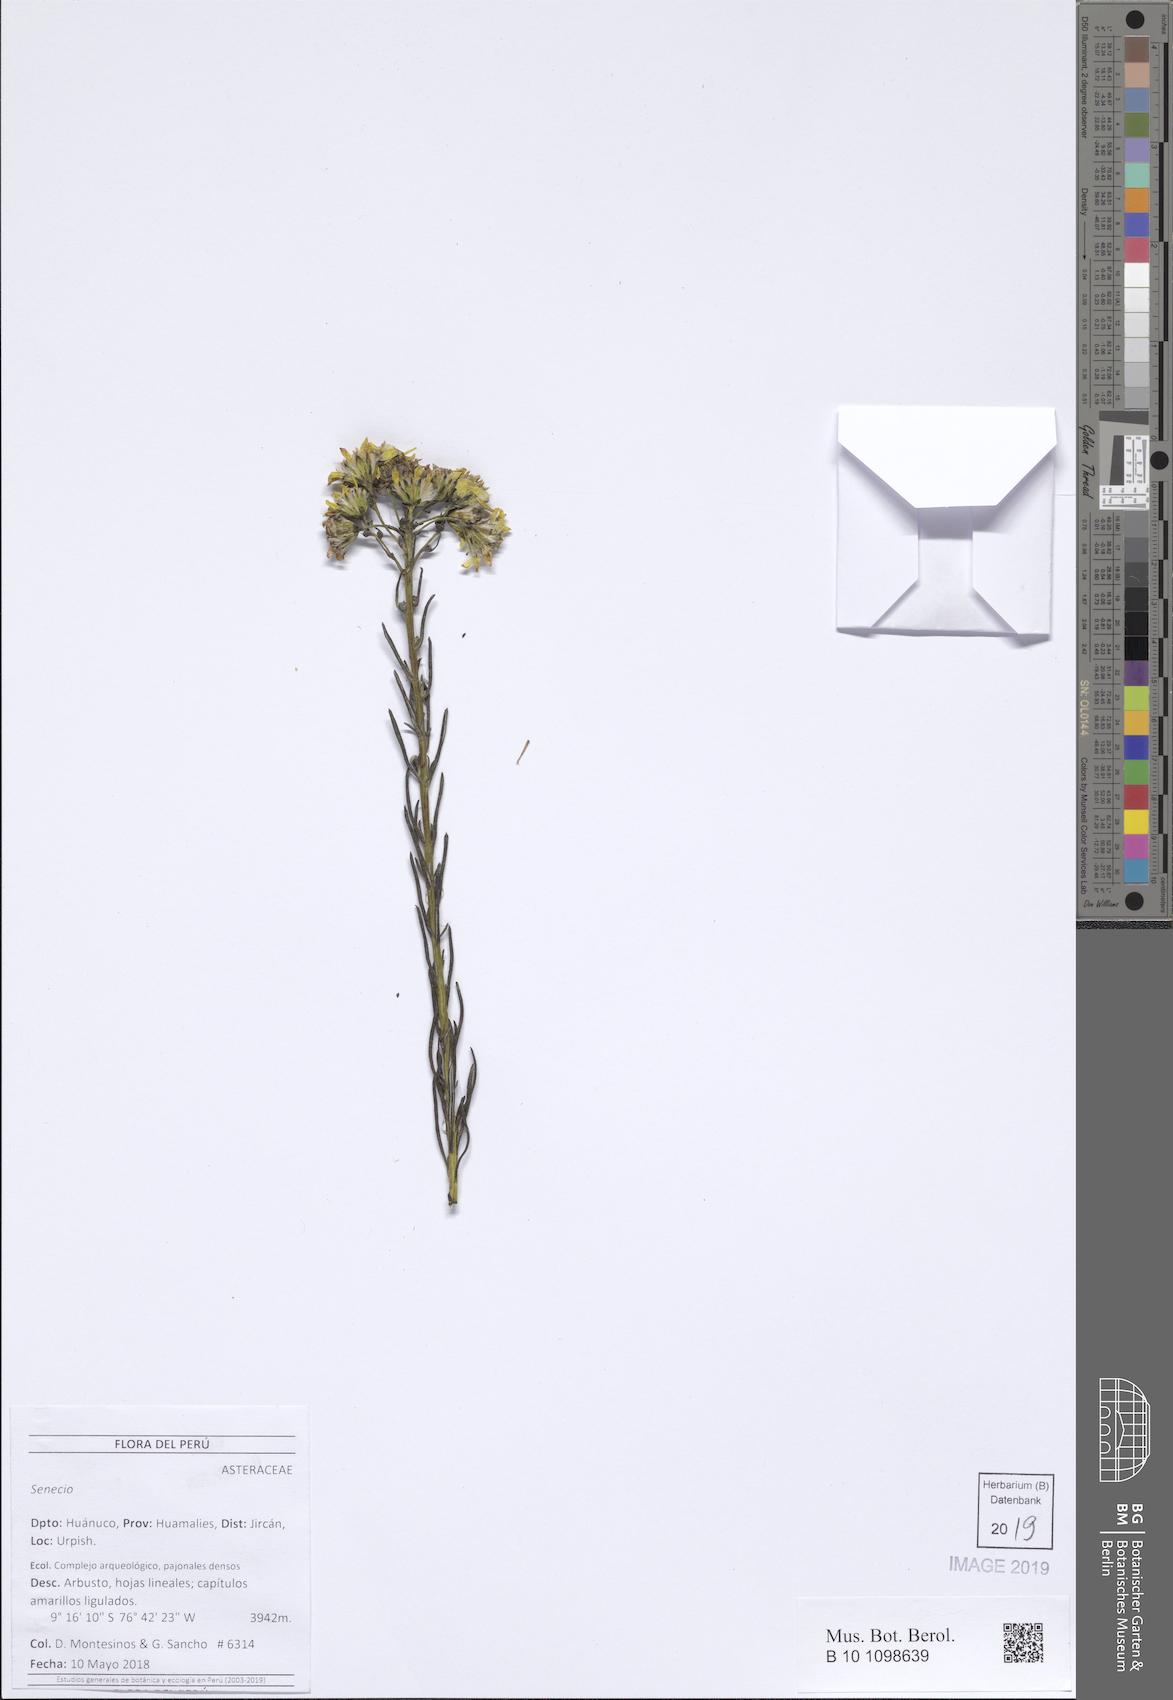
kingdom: Plantae
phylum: Tracheophyta
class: Magnoliopsida
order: Asterales
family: Asteraceae
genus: Senecio
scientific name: Senecio lopez-guillenii
